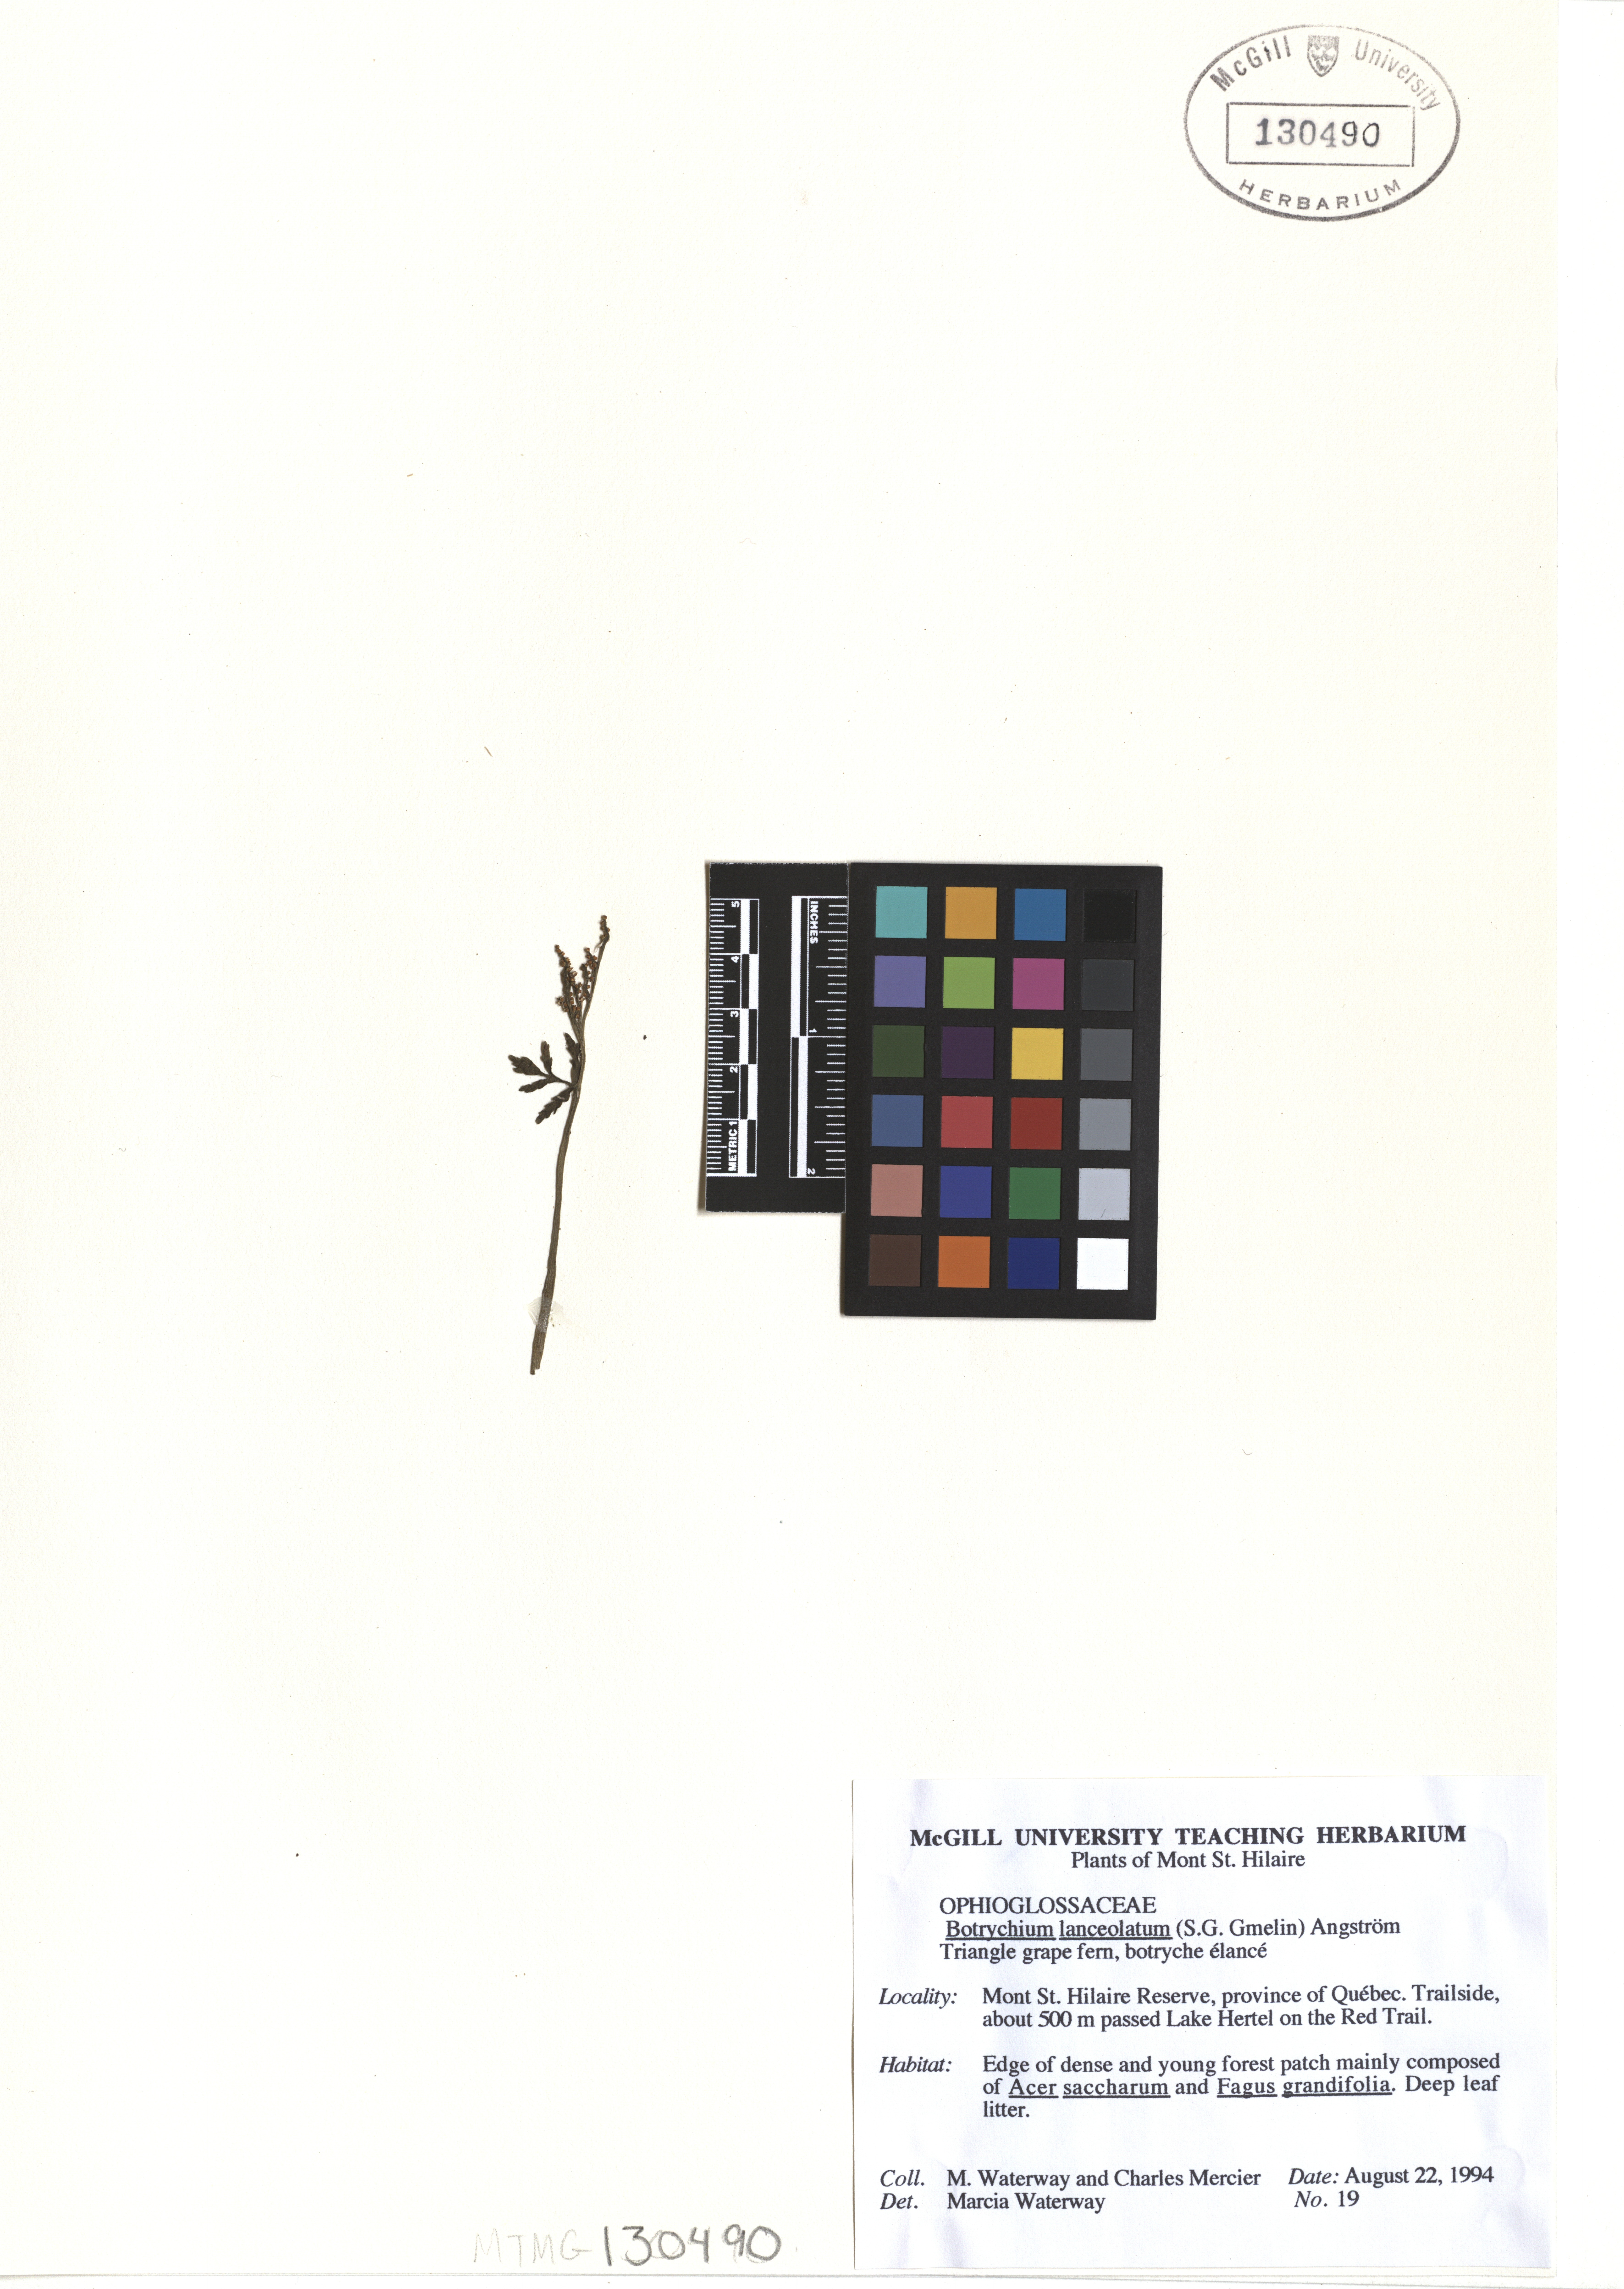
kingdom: Plantae
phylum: Tracheophyta
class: Polypodiopsida
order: Ophioglossales
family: Ophioglossaceae
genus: Botrychium
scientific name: Botrychium lanceolatum
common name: Lance-leaved moonwort
